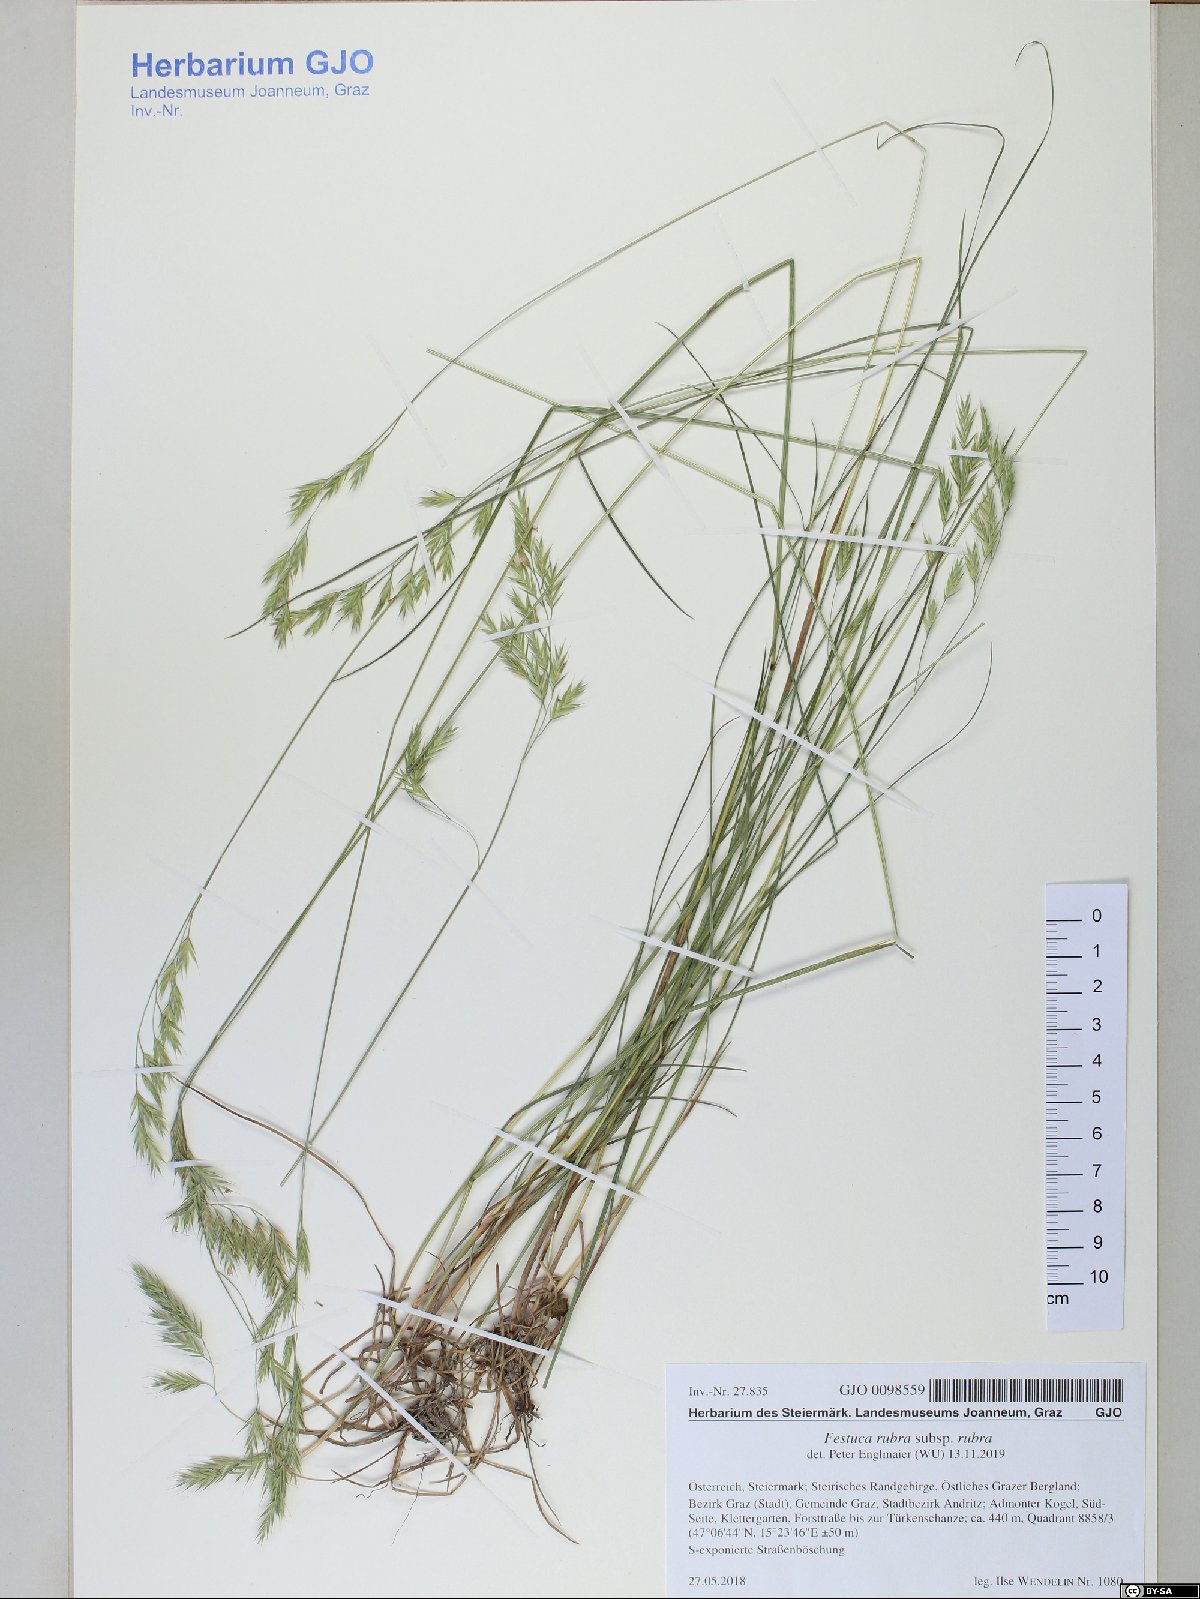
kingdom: Plantae
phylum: Tracheophyta
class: Liliopsida
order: Poales
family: Poaceae
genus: Festuca
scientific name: Festuca rubra
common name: Red fescue
